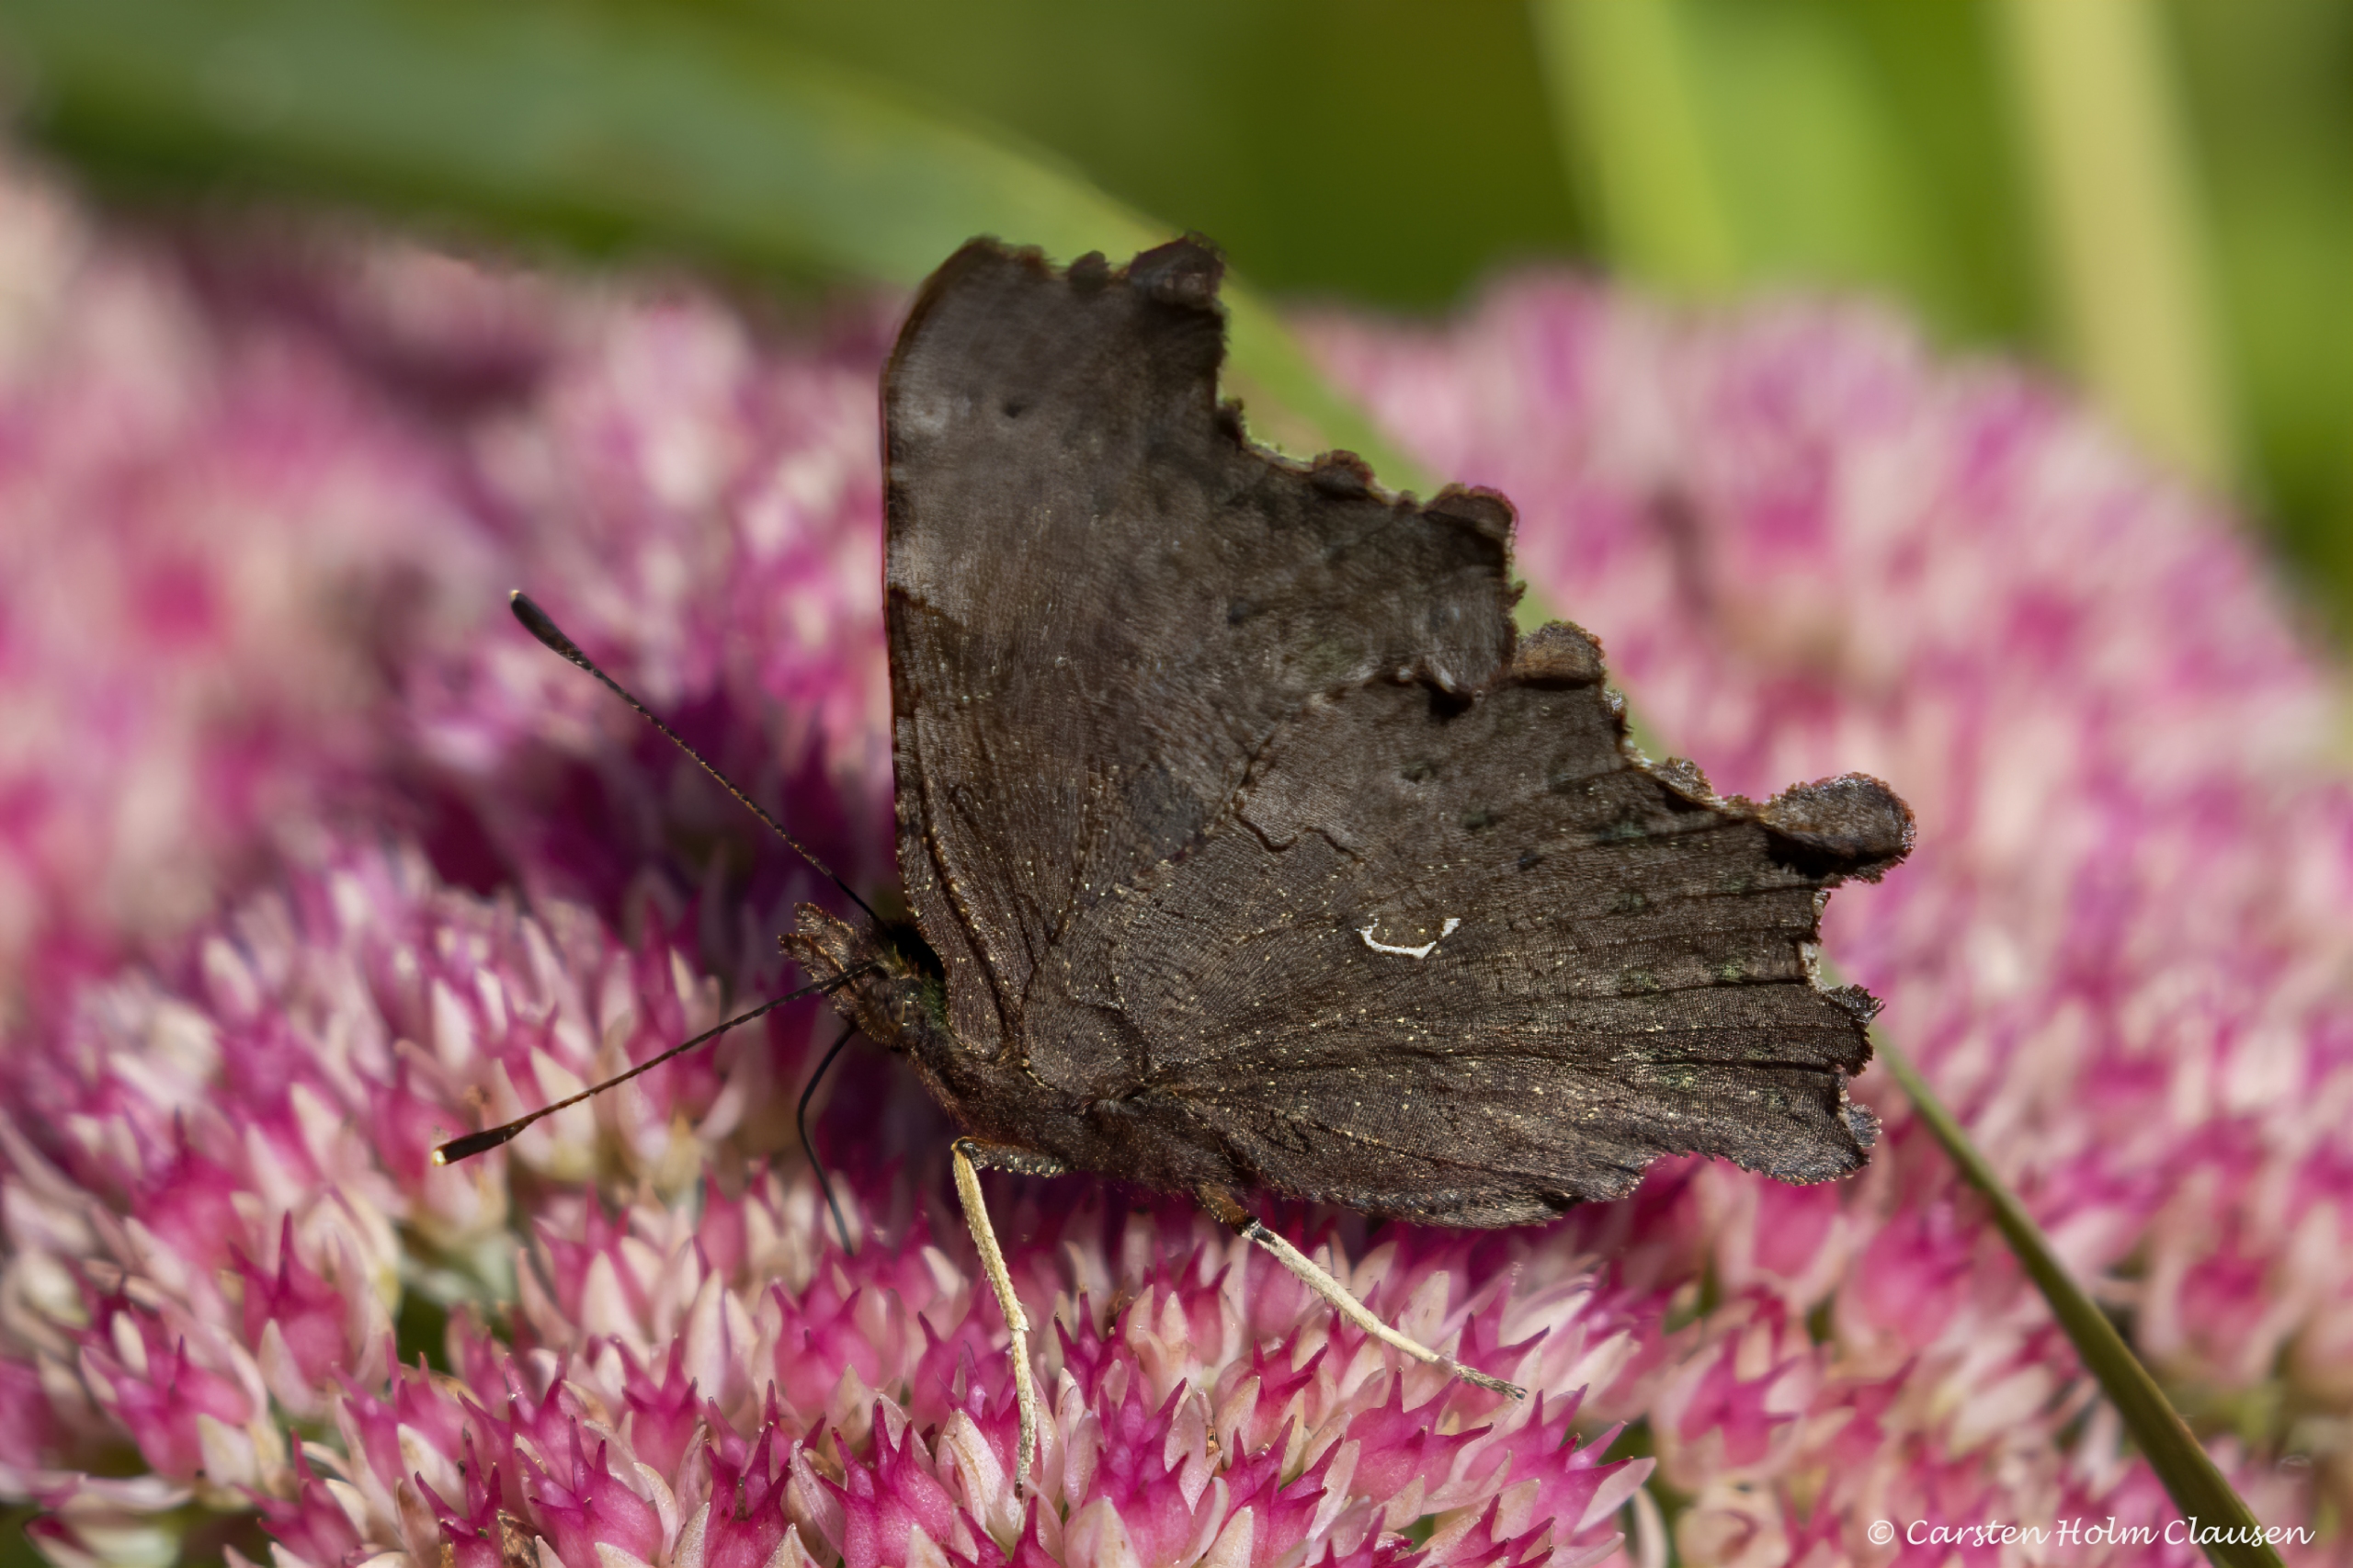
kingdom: Animalia
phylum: Arthropoda
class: Insecta
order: Lepidoptera
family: Nymphalidae
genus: Polygonia
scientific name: Polygonia c-album
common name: Det hvide C
